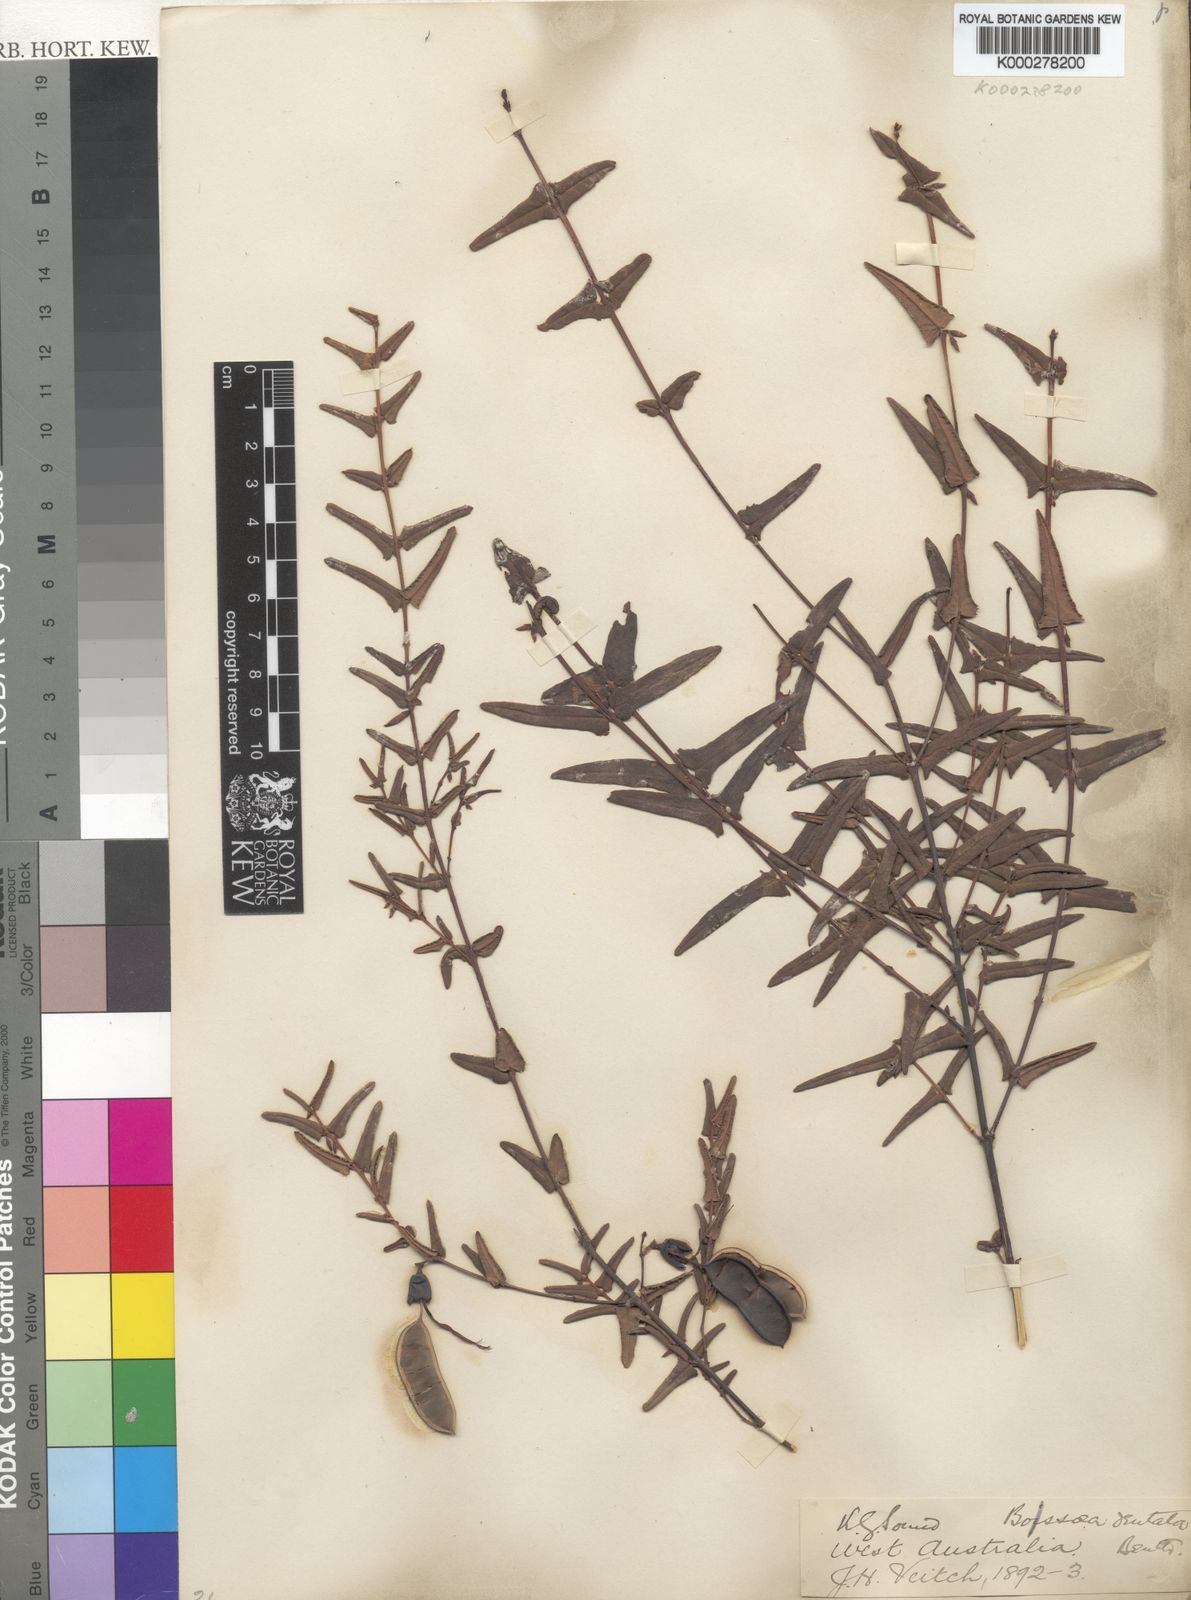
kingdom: Plantae
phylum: Tracheophyta
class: Magnoliopsida
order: Fabales
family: Fabaceae
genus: Bossiaea
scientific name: Bossiaea dentata
